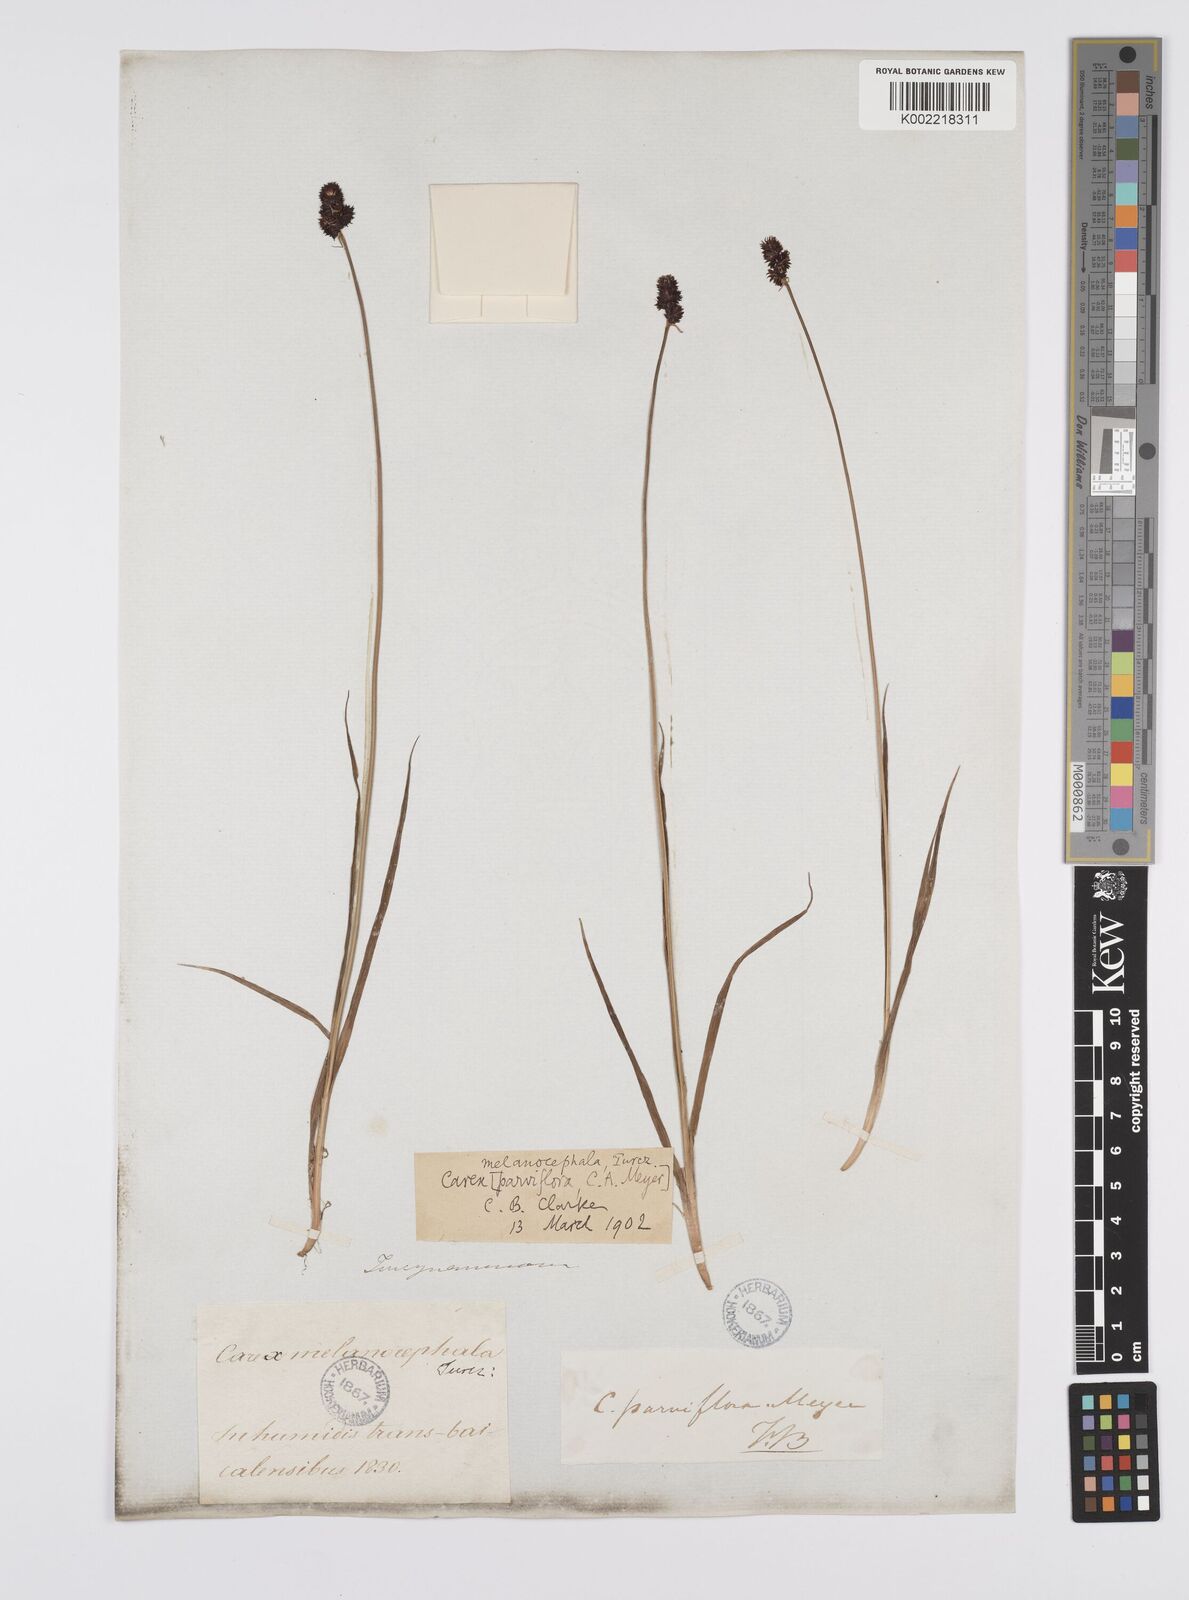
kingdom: Plantae
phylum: Tracheophyta
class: Liliopsida
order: Poales
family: Cyperaceae
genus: Carex
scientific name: Carex melanocephala
